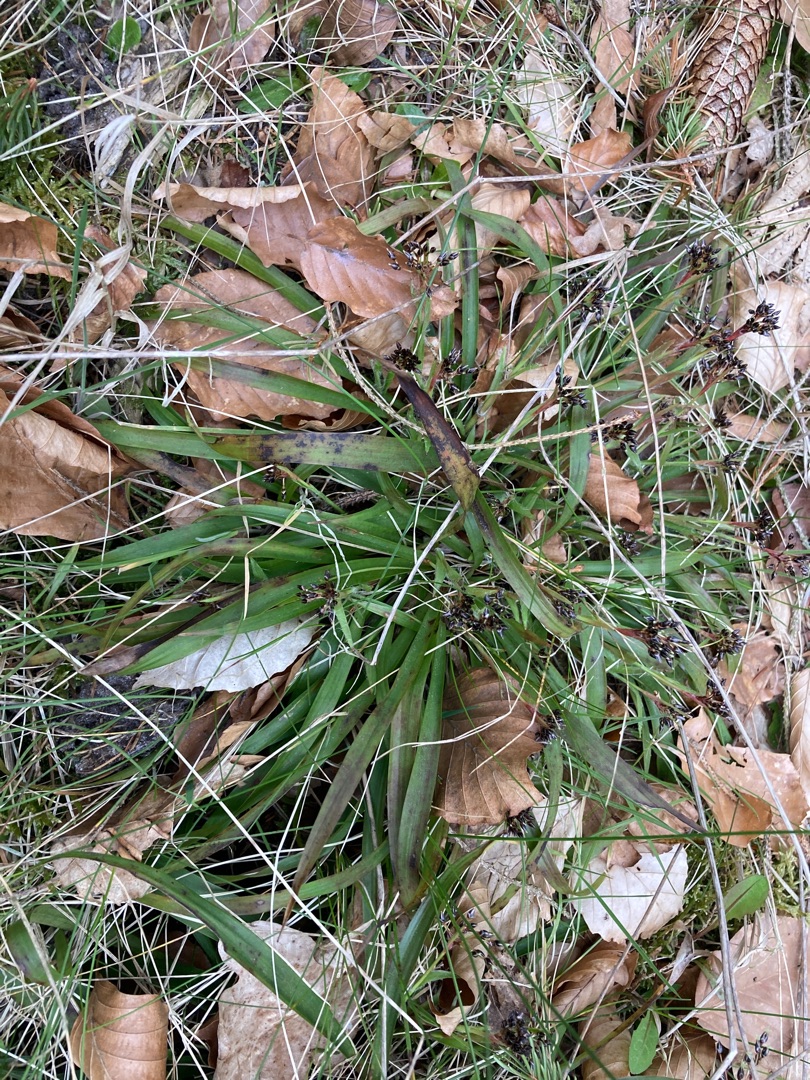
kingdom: Plantae
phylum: Tracheophyta
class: Liliopsida
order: Poales
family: Juncaceae
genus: Luzula
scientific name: Luzula pilosa
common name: Håret frytle
